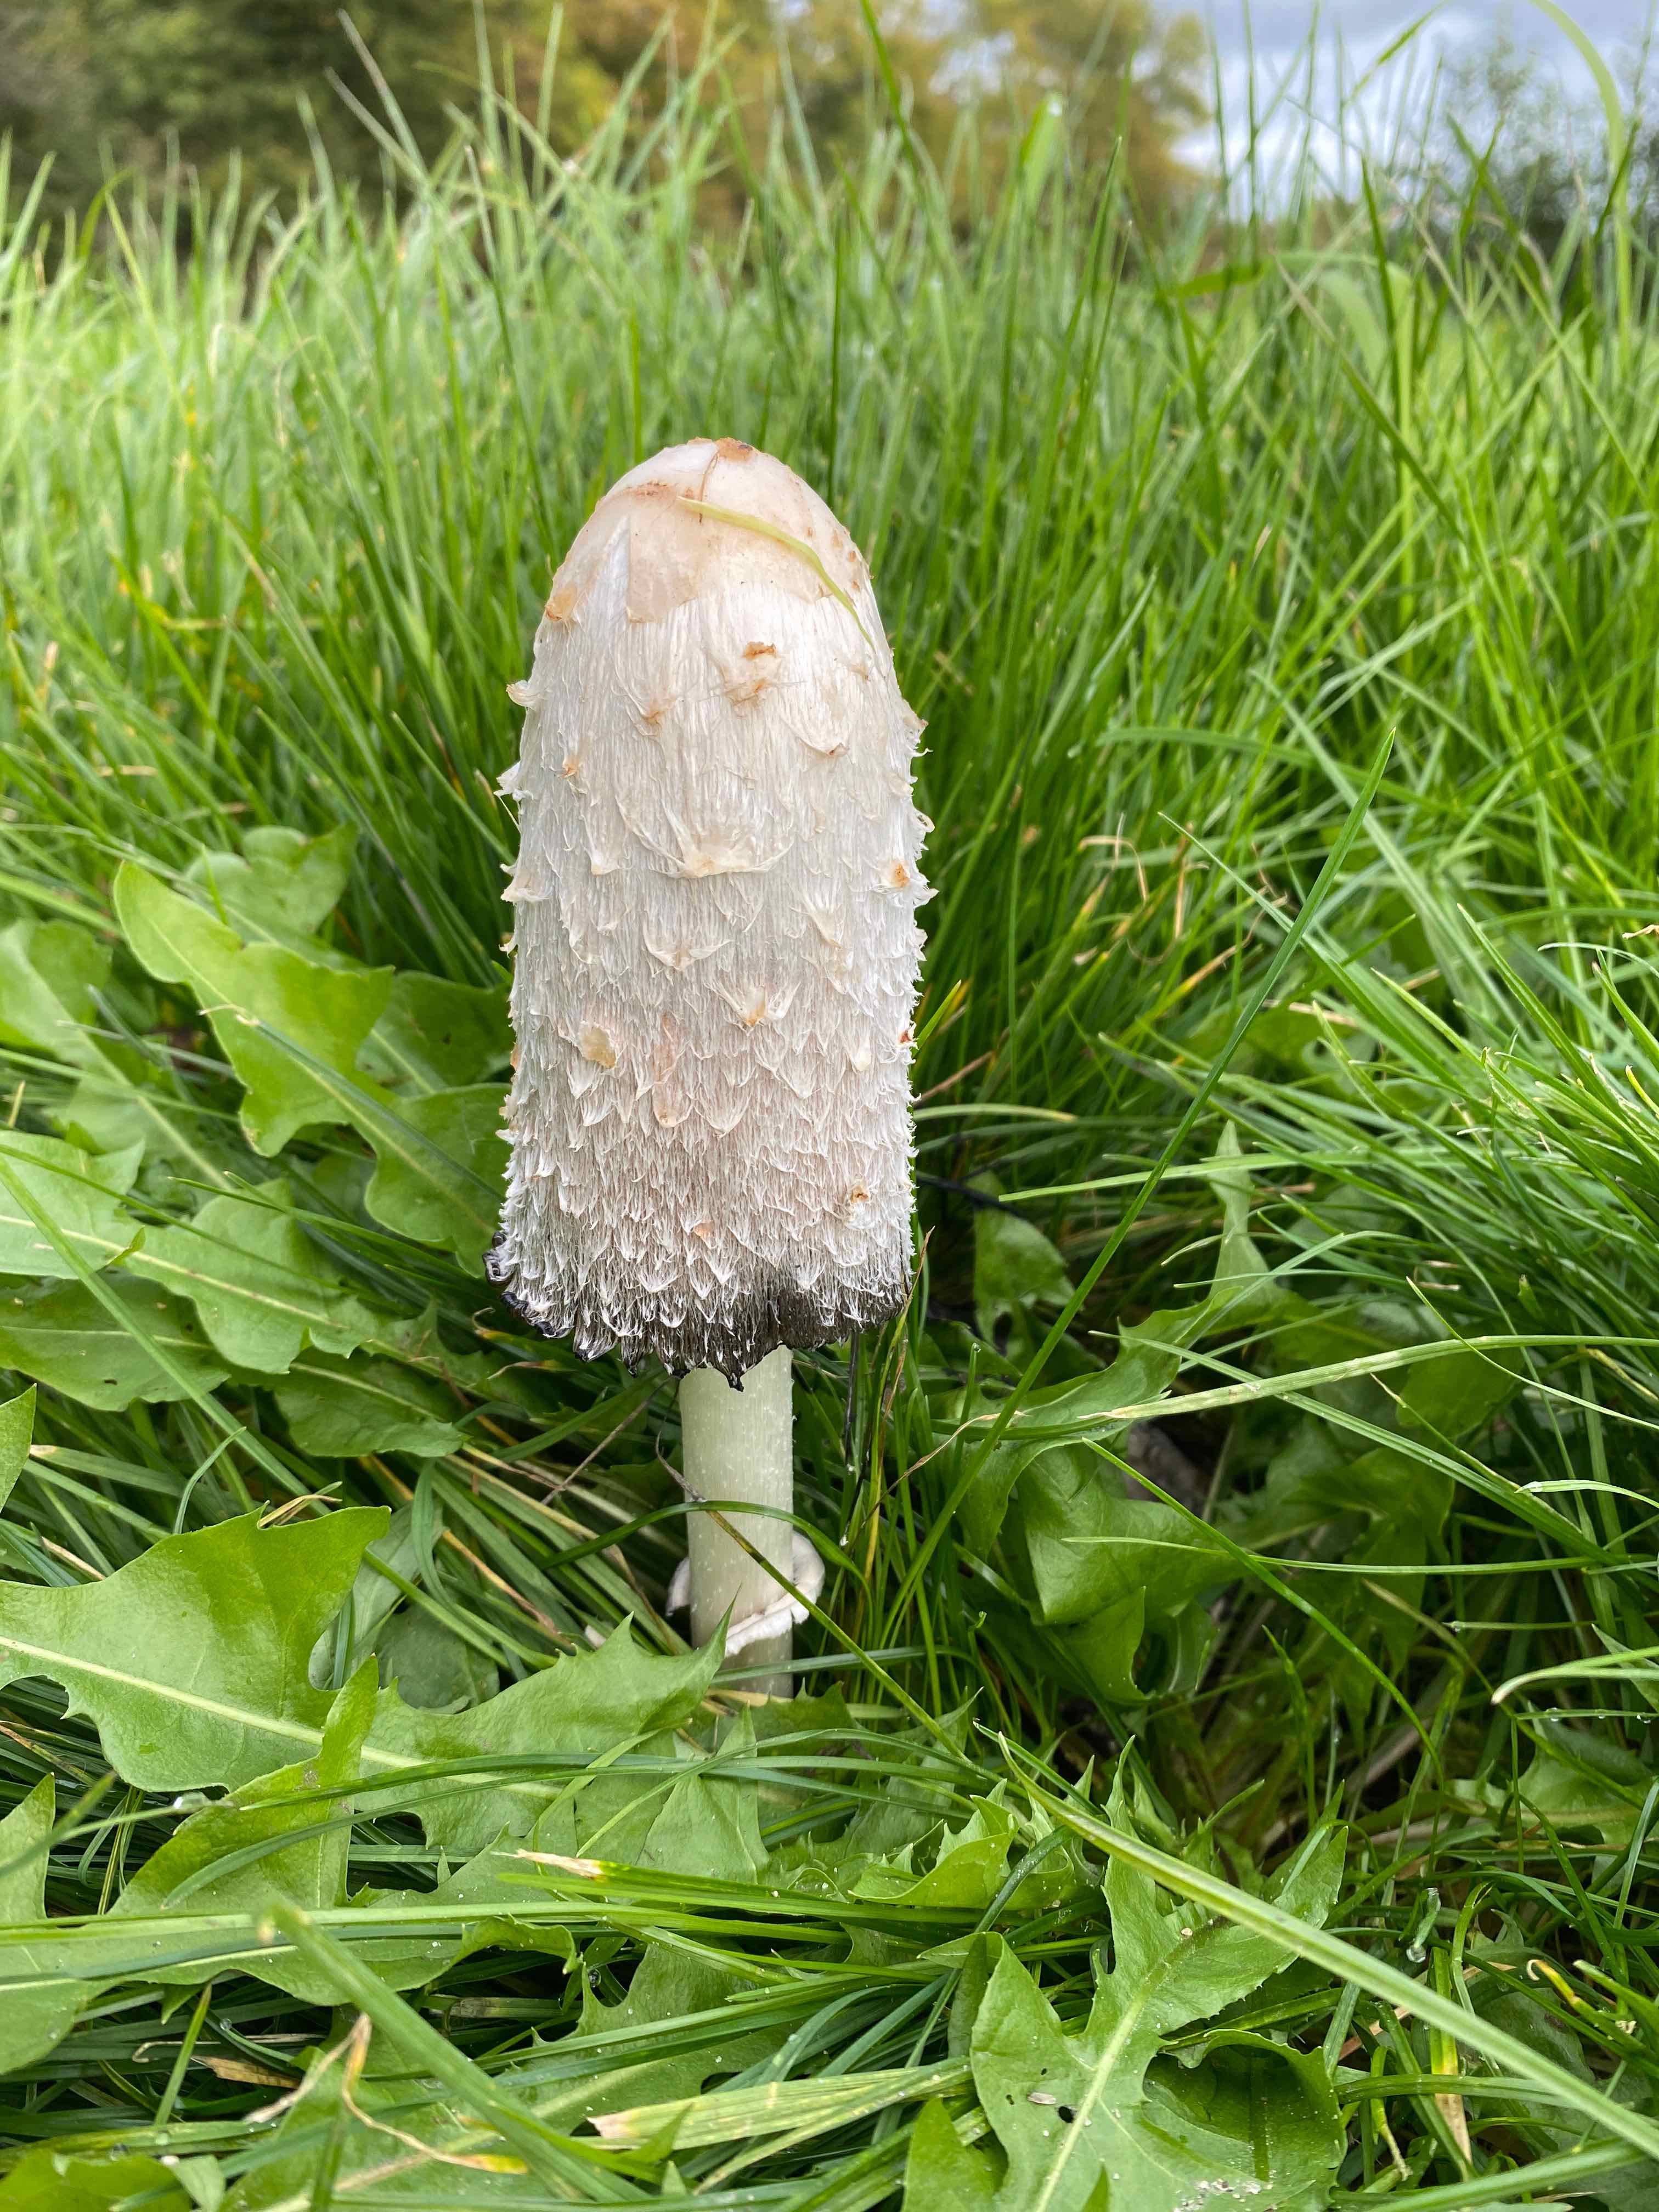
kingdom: Fungi
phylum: Basidiomycota
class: Agaricomycetes
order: Agaricales
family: Agaricaceae
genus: Coprinus
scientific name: Coprinus comatus
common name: stor parykhat
